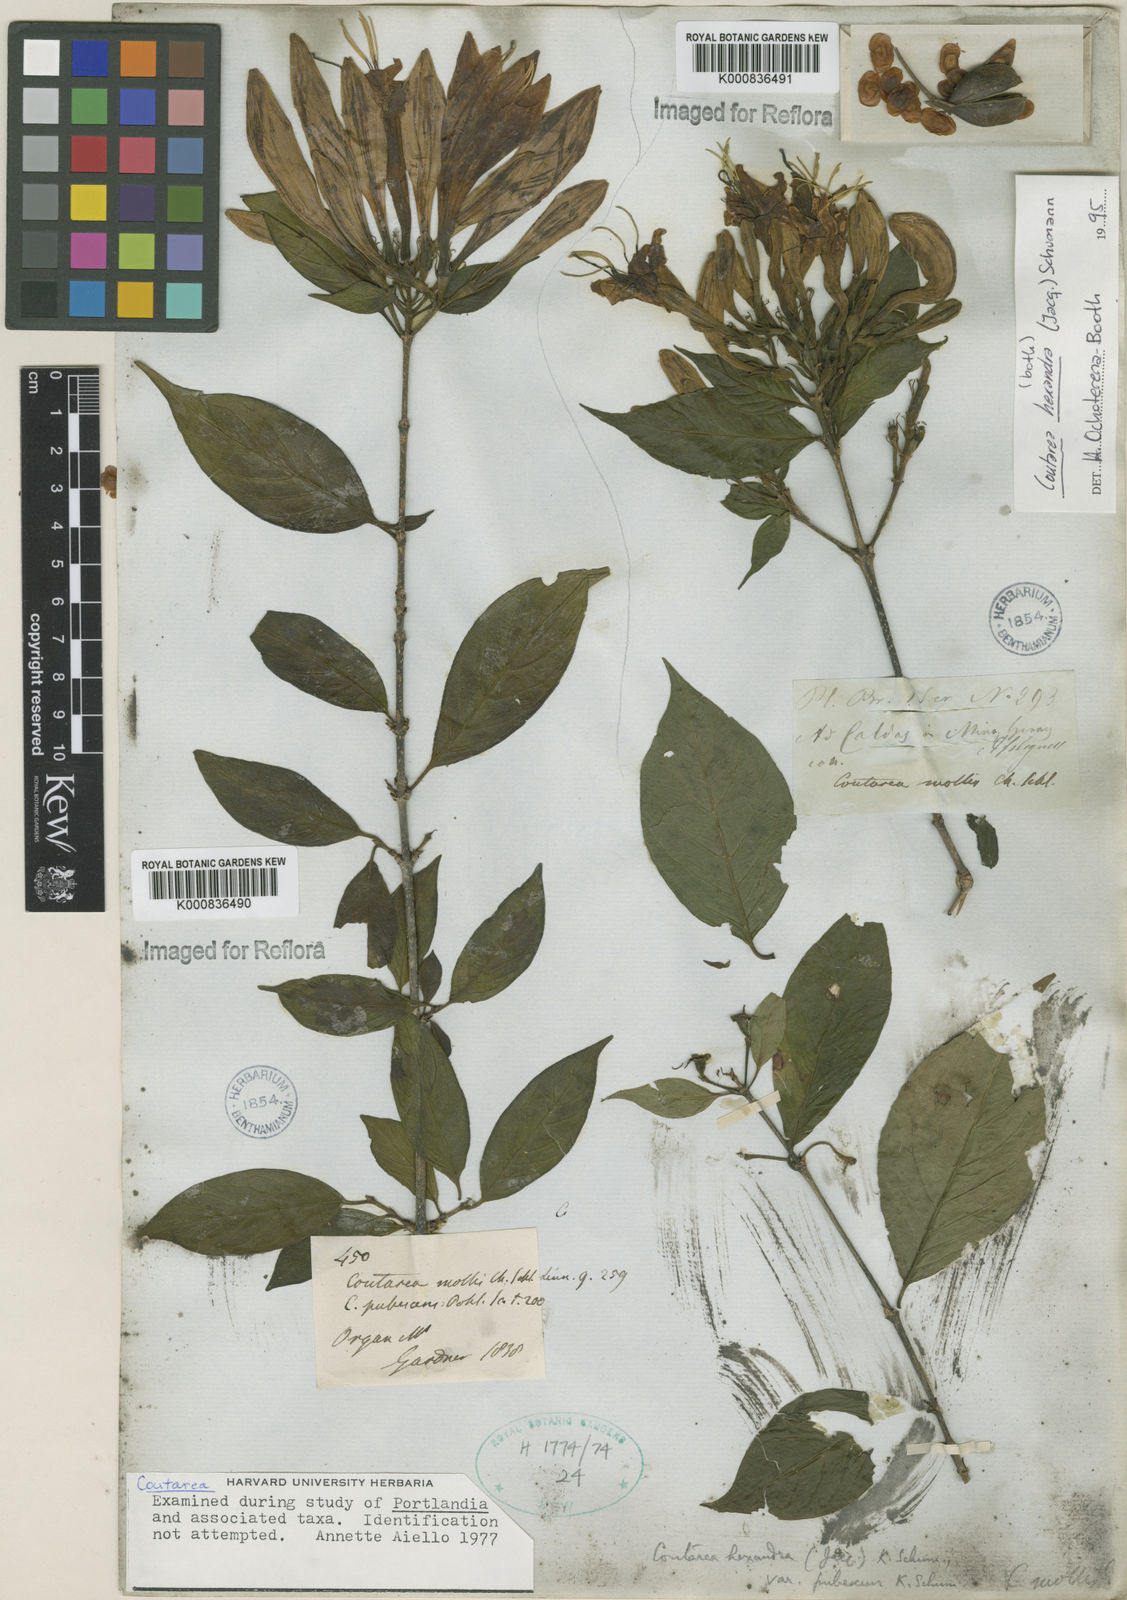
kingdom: Plantae
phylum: Tracheophyta
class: Magnoliopsida
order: Gentianales
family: Rubiaceae
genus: Coutarea
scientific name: Coutarea hexandra
